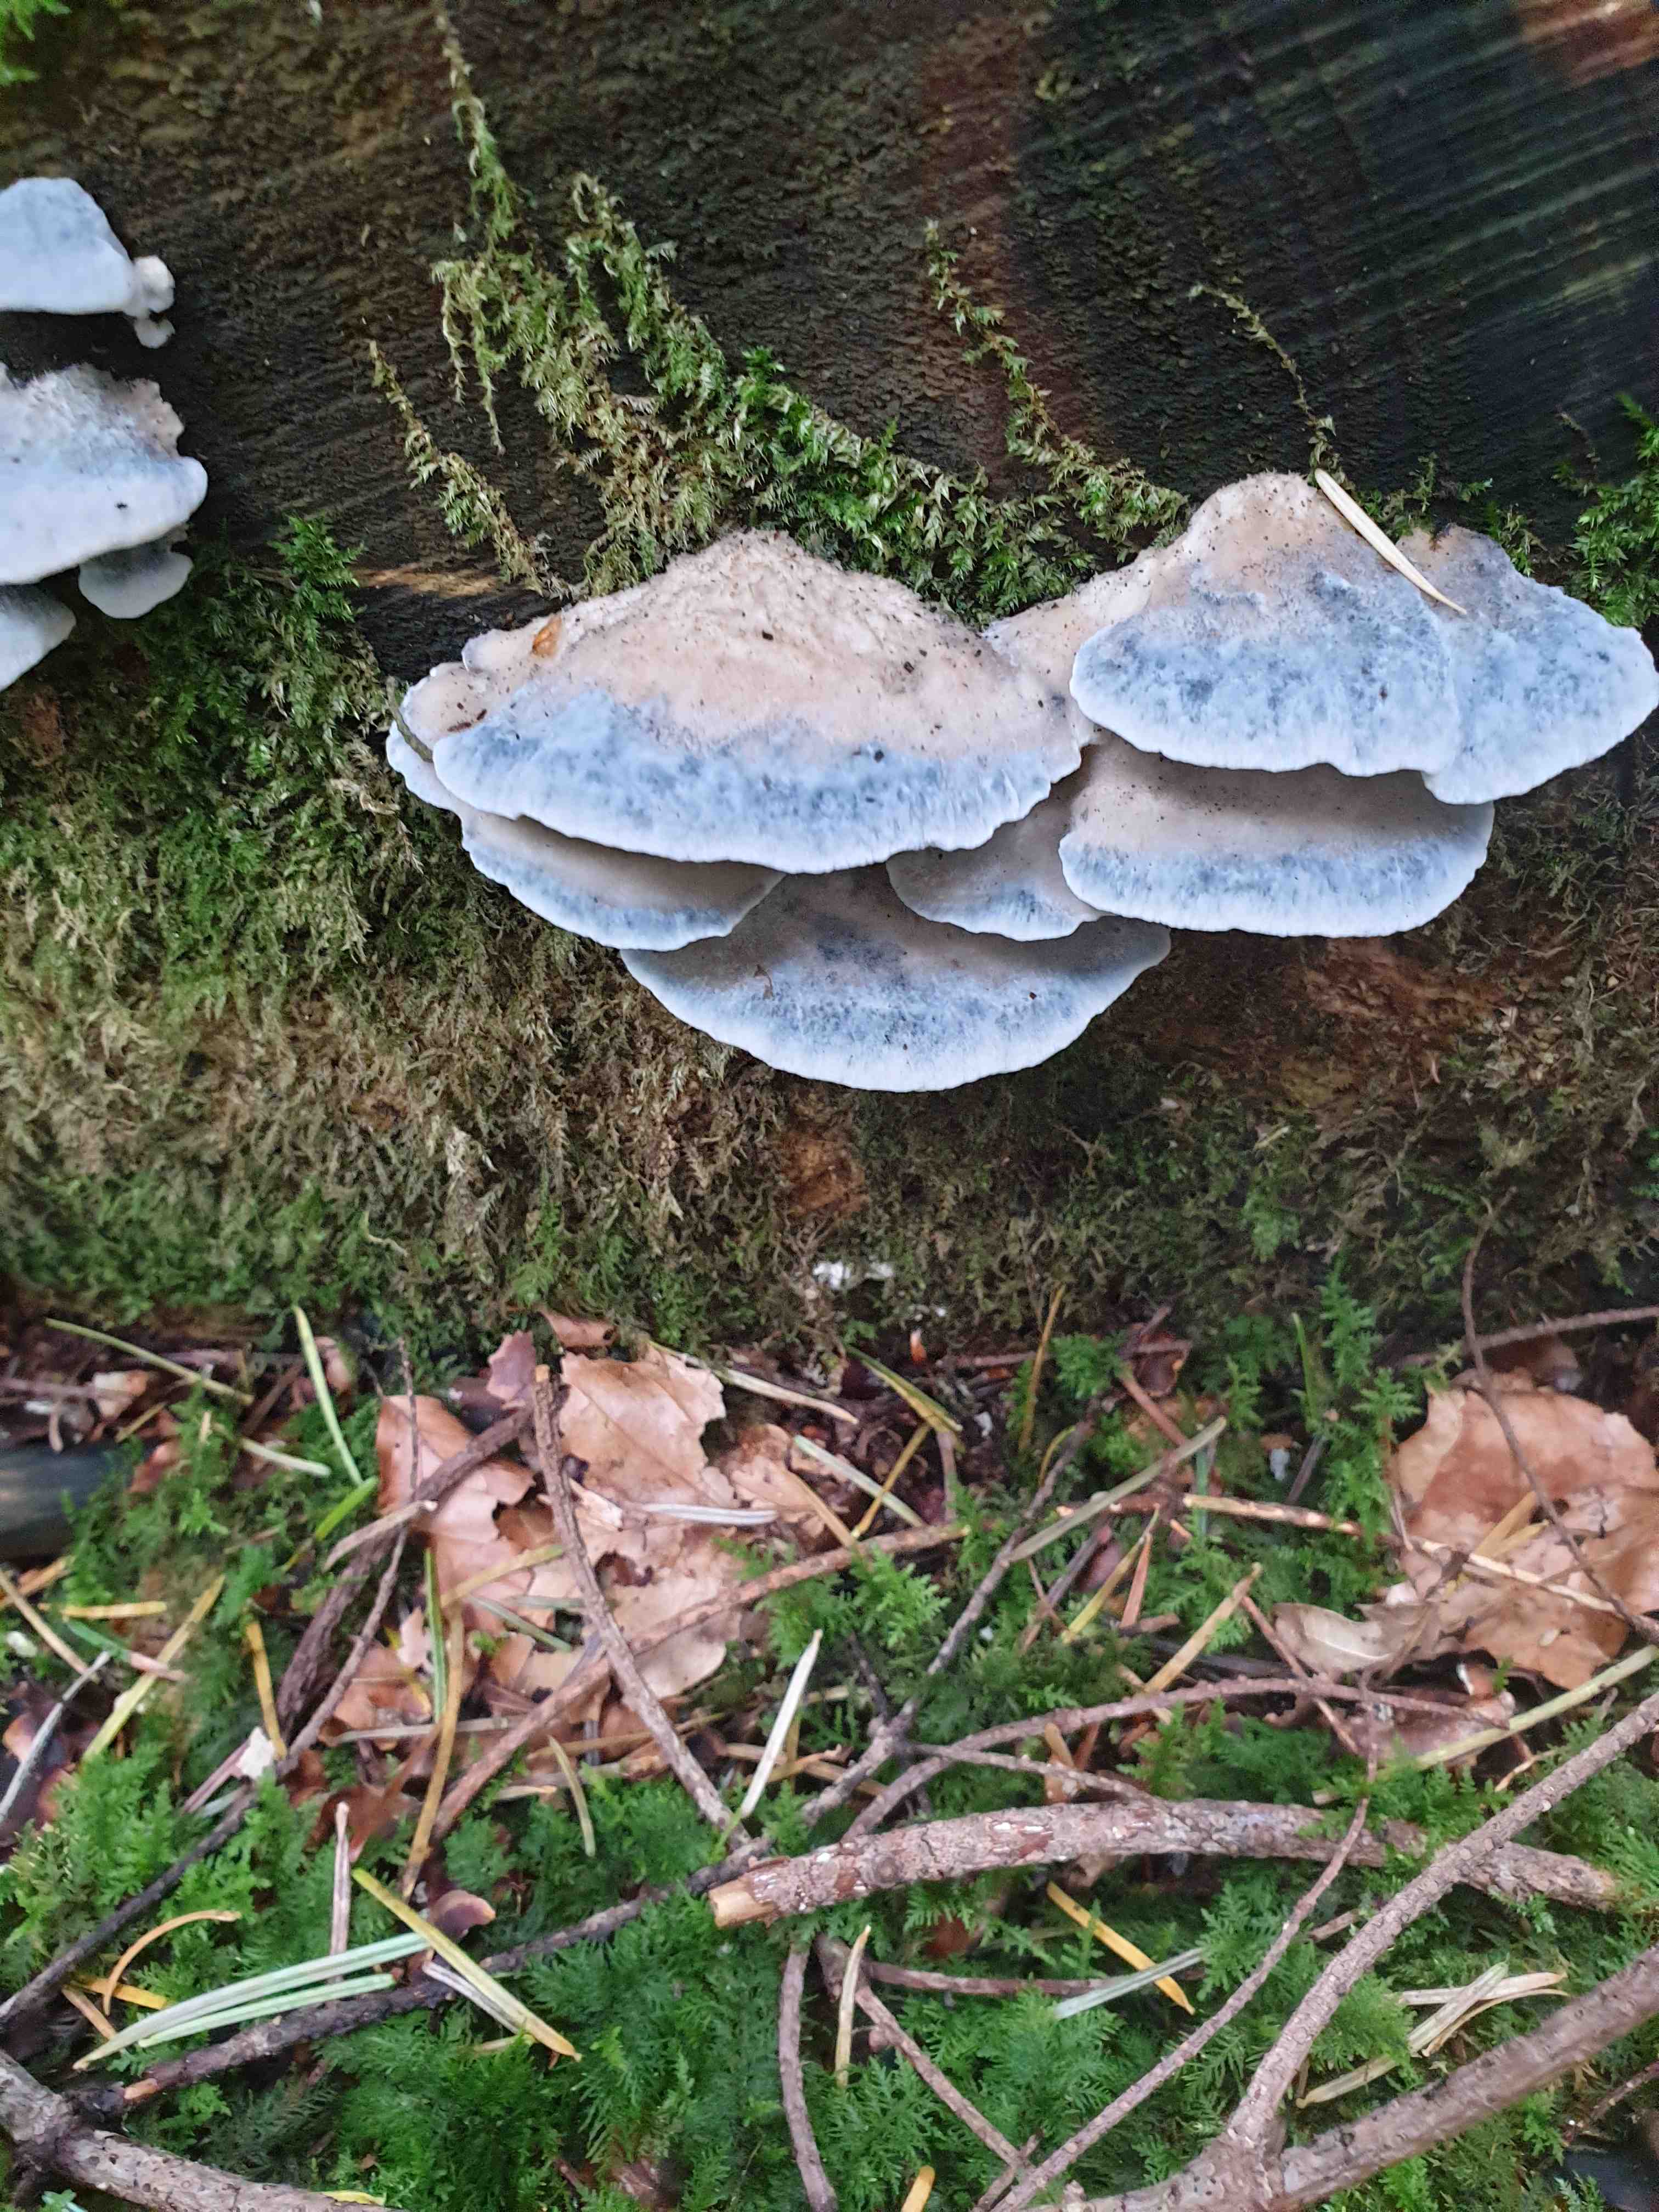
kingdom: Fungi
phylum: Basidiomycota
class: Agaricomycetes
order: Polyporales
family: Polyporaceae
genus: Cyanosporus
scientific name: Cyanosporus caesius
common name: blålig kødporesvamp
